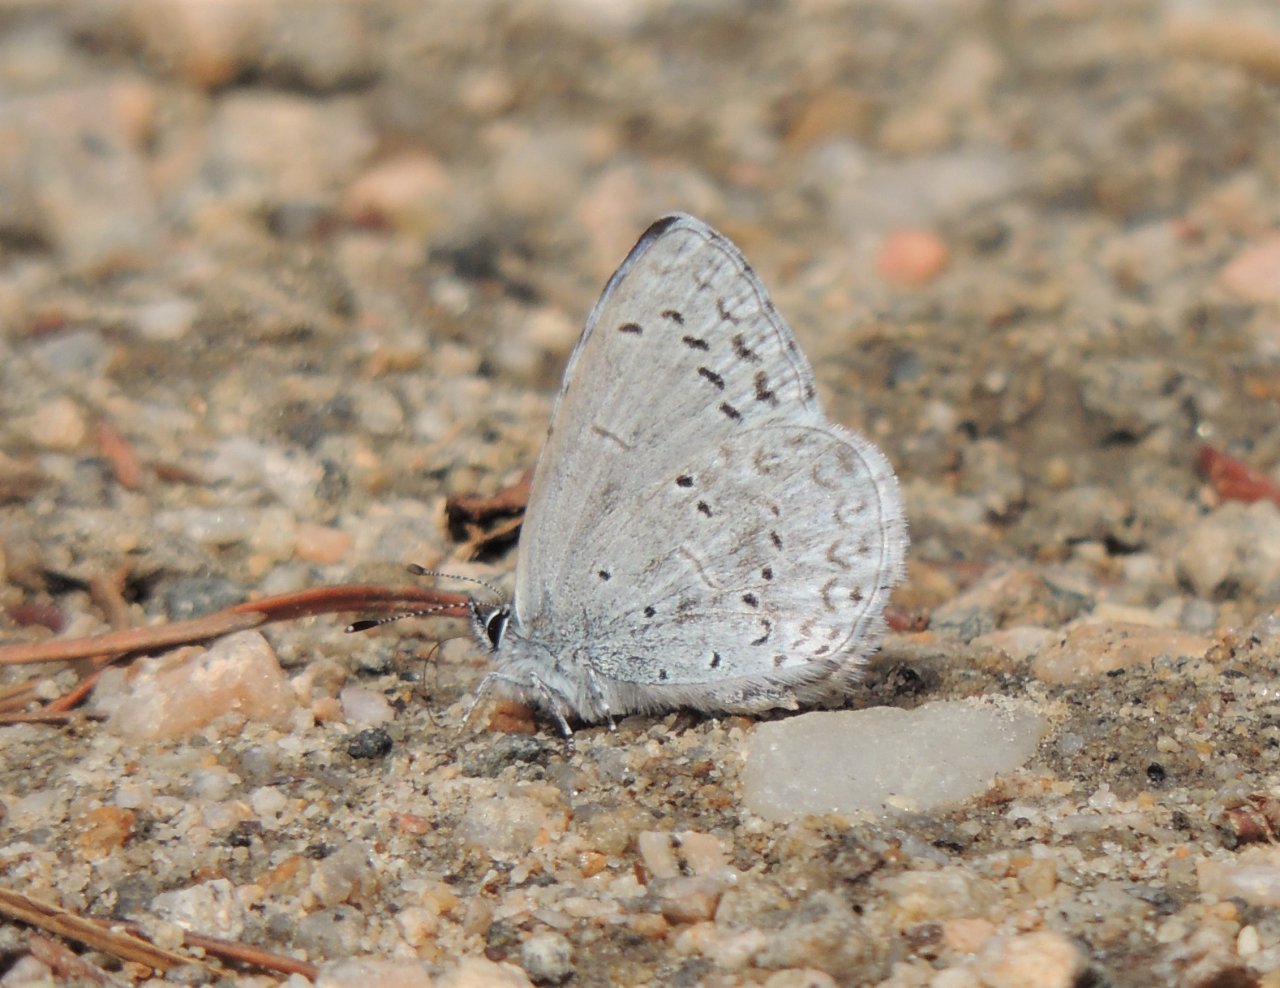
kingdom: Animalia
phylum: Arthropoda
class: Insecta
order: Lepidoptera
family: Lycaenidae
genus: Celastrina
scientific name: Celastrina ladon
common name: Echo Azure
